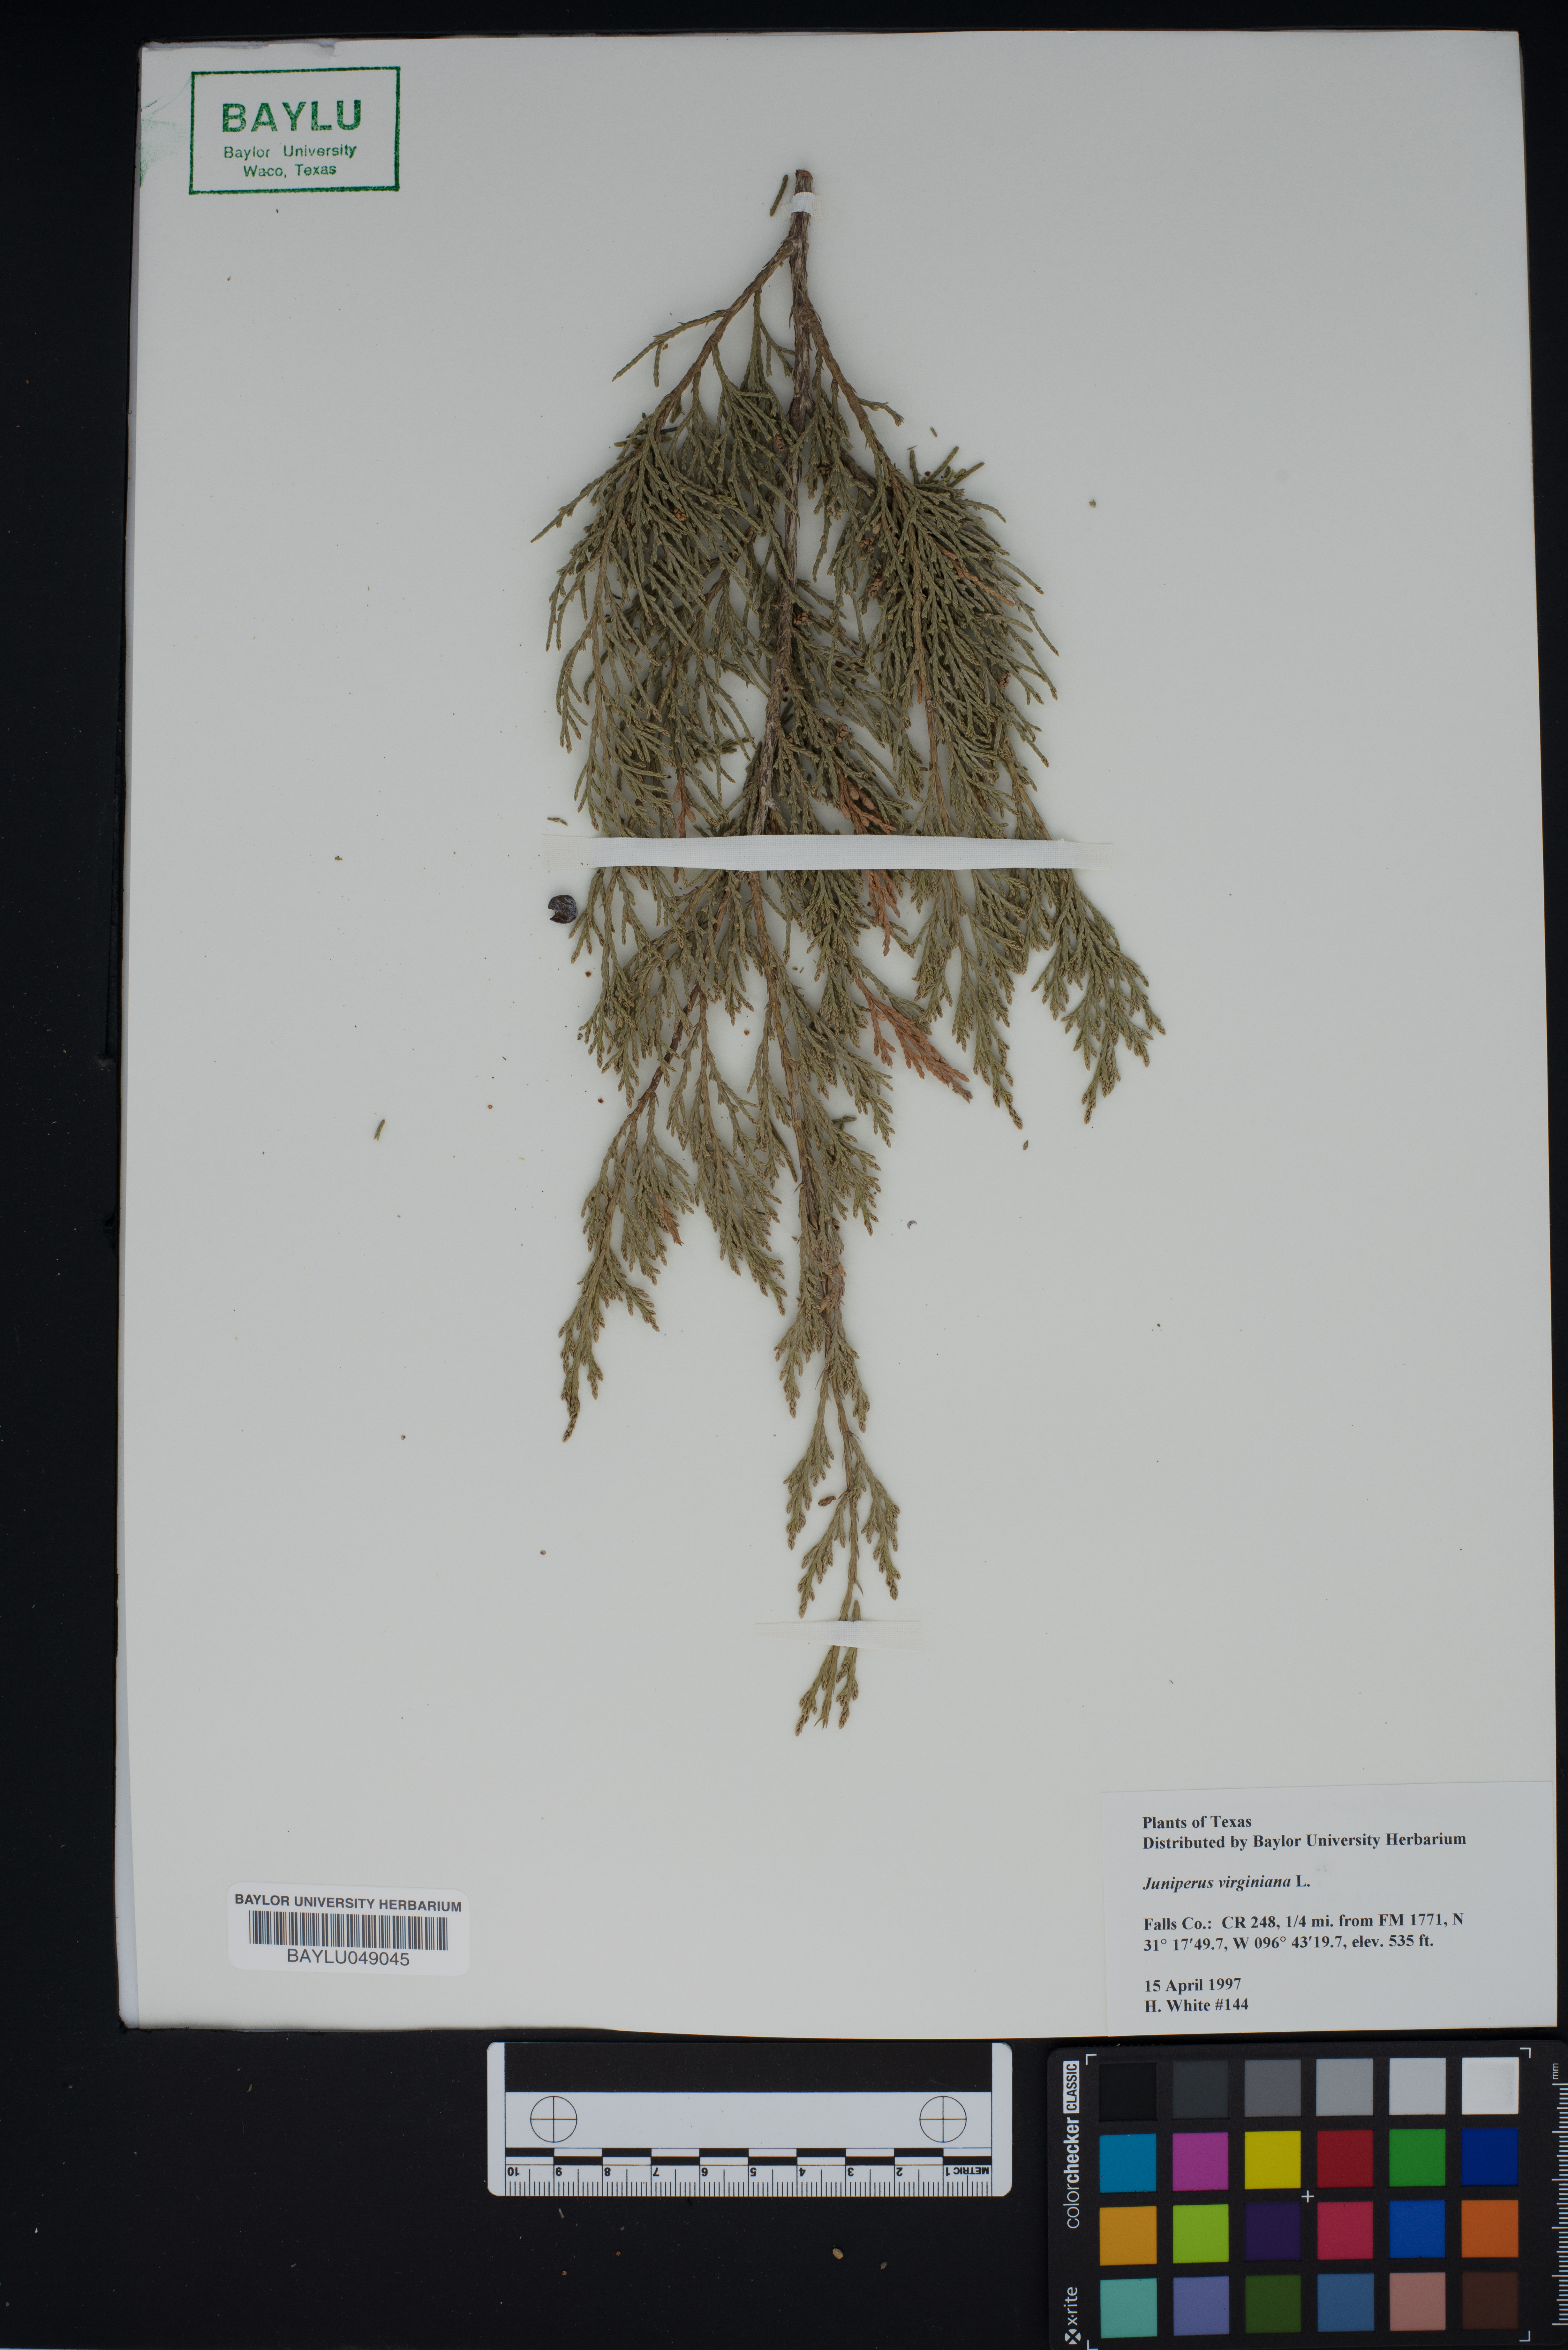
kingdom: Plantae
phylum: Tracheophyta
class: Pinopsida
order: Pinales
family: Cupressaceae
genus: Juniperus
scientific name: Juniperus virginiana
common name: Red juniper
